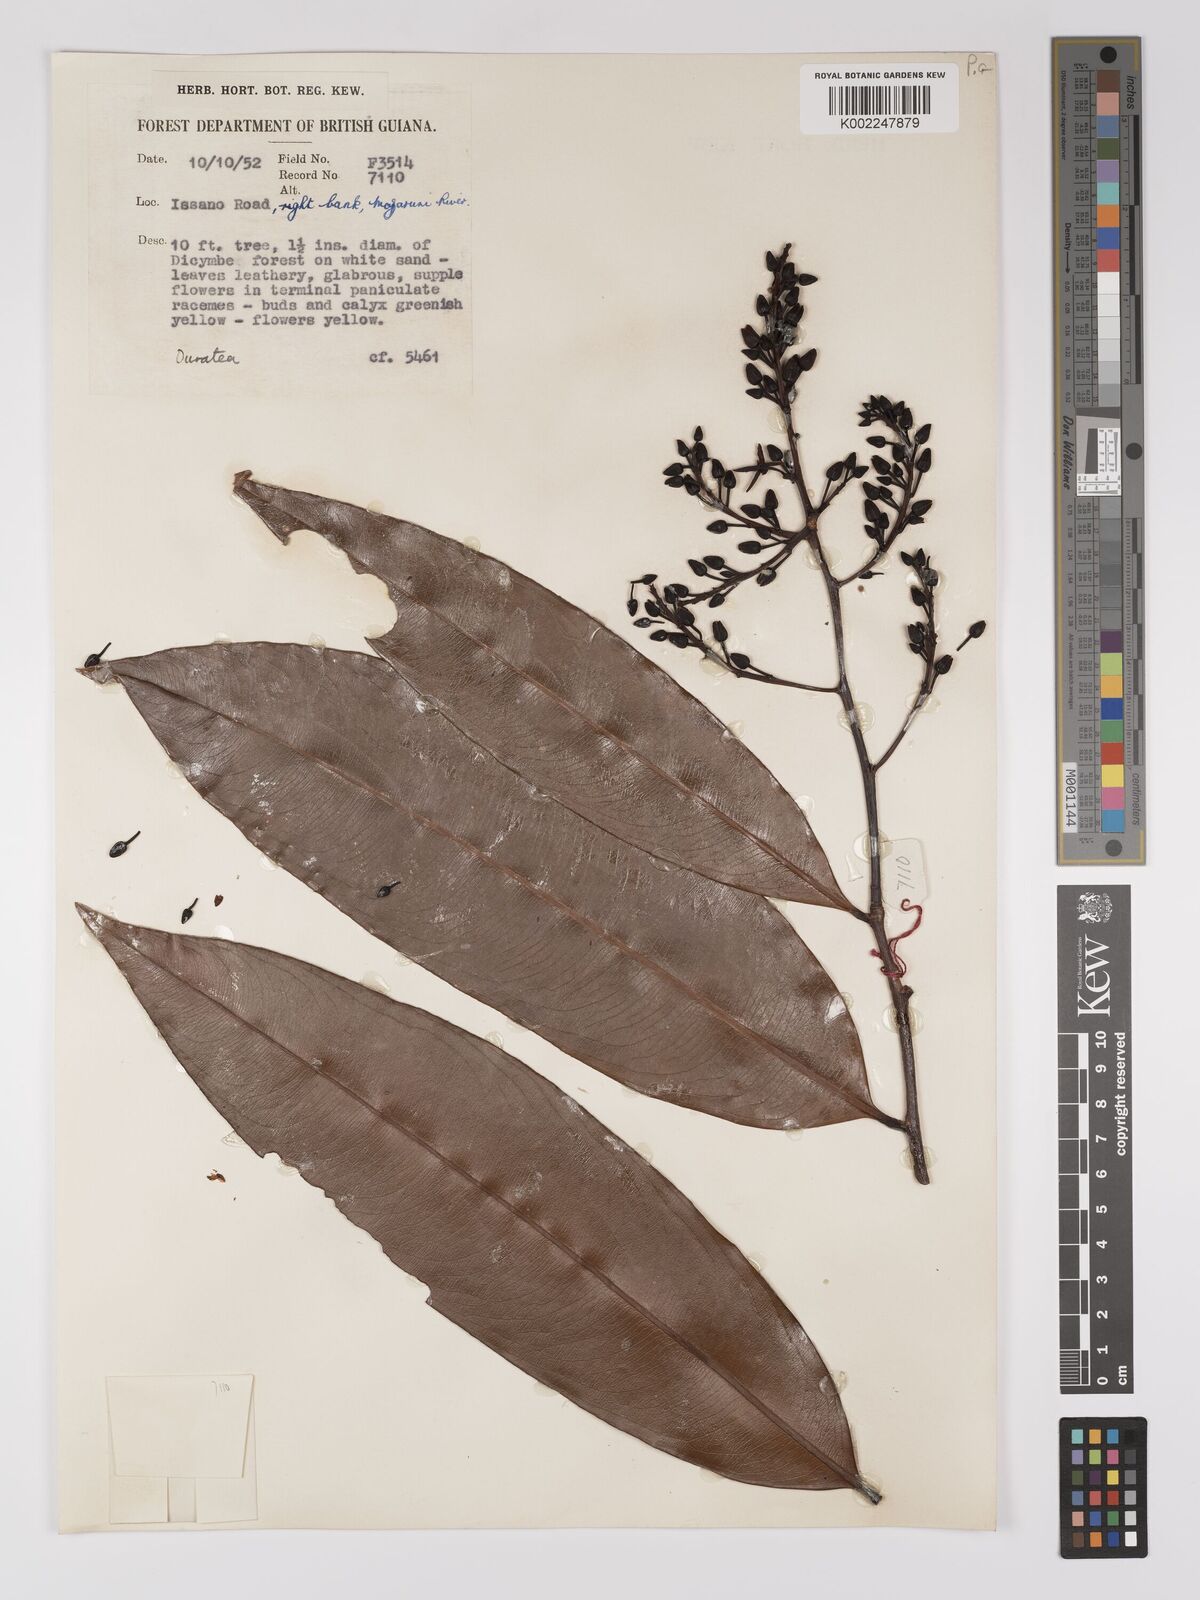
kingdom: Plantae
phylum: Tracheophyta
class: Magnoliopsida
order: Malpighiales
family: Ochnaceae
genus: Ouratea
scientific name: Ouratea
